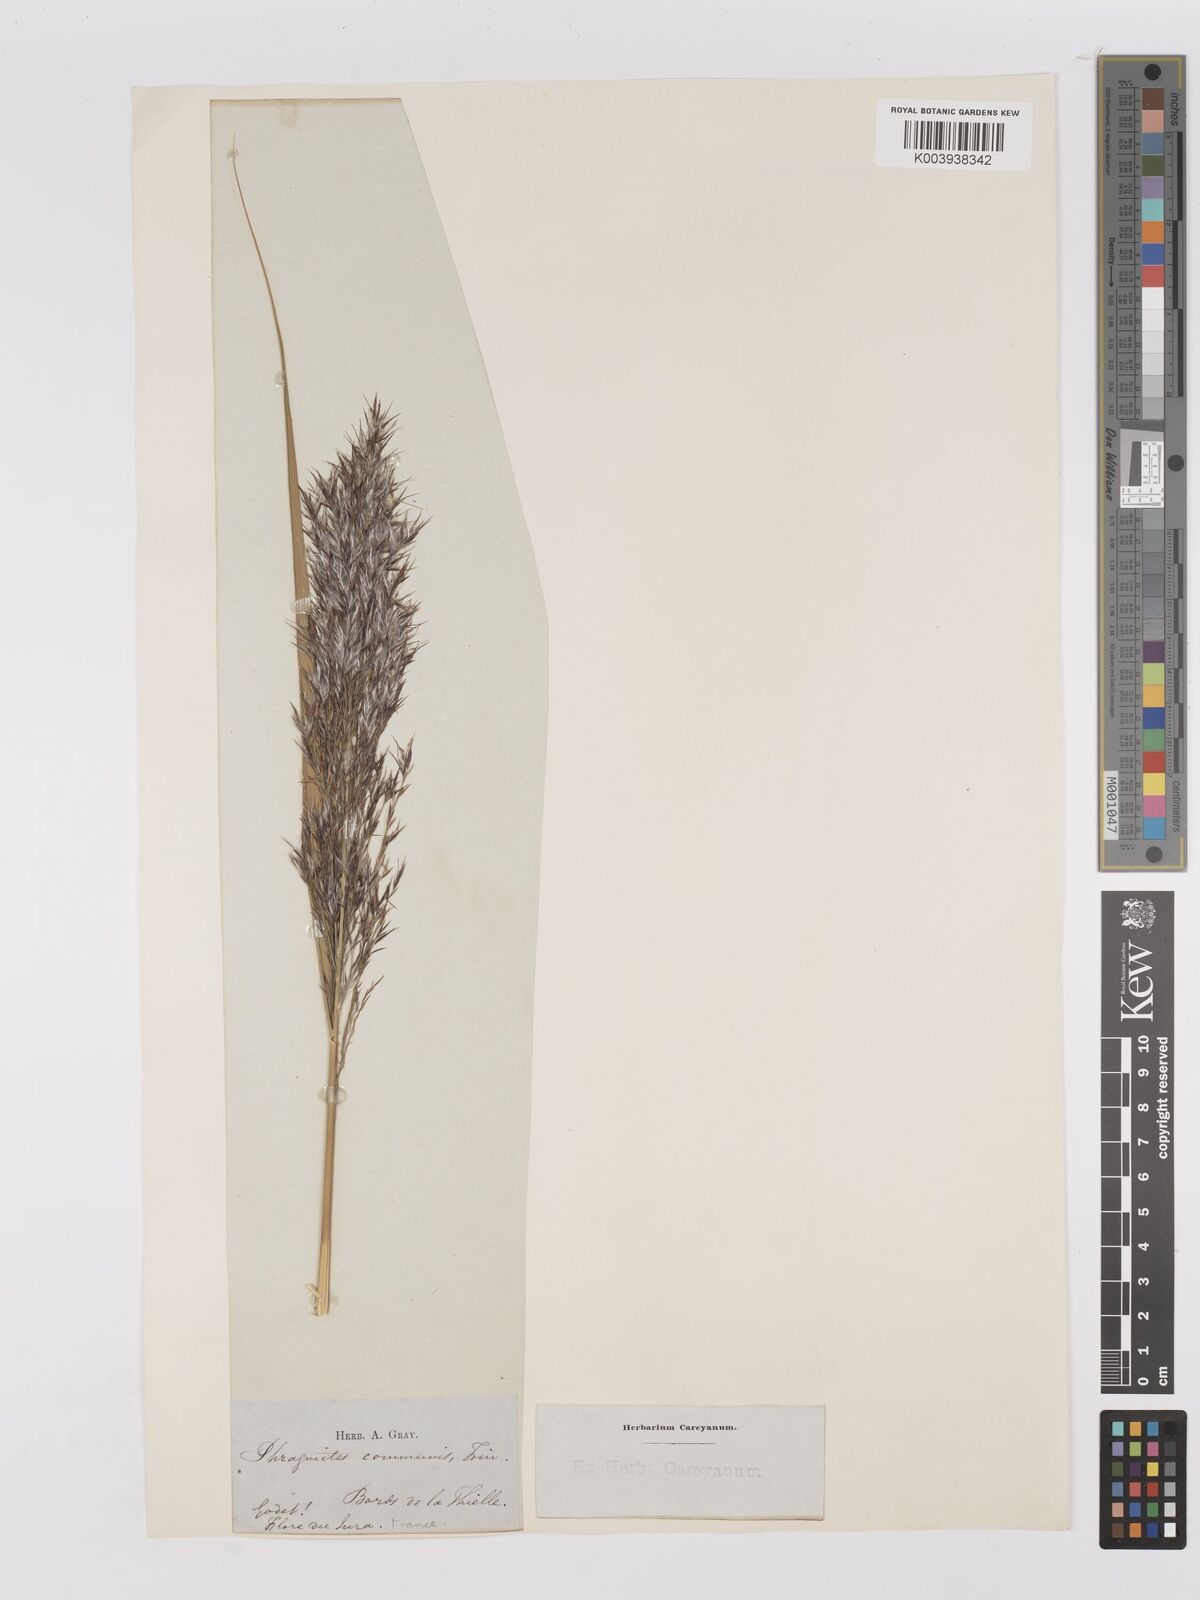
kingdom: Plantae
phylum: Tracheophyta
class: Liliopsida
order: Poales
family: Poaceae
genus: Phragmites
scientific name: Phragmites australis
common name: Common reed
